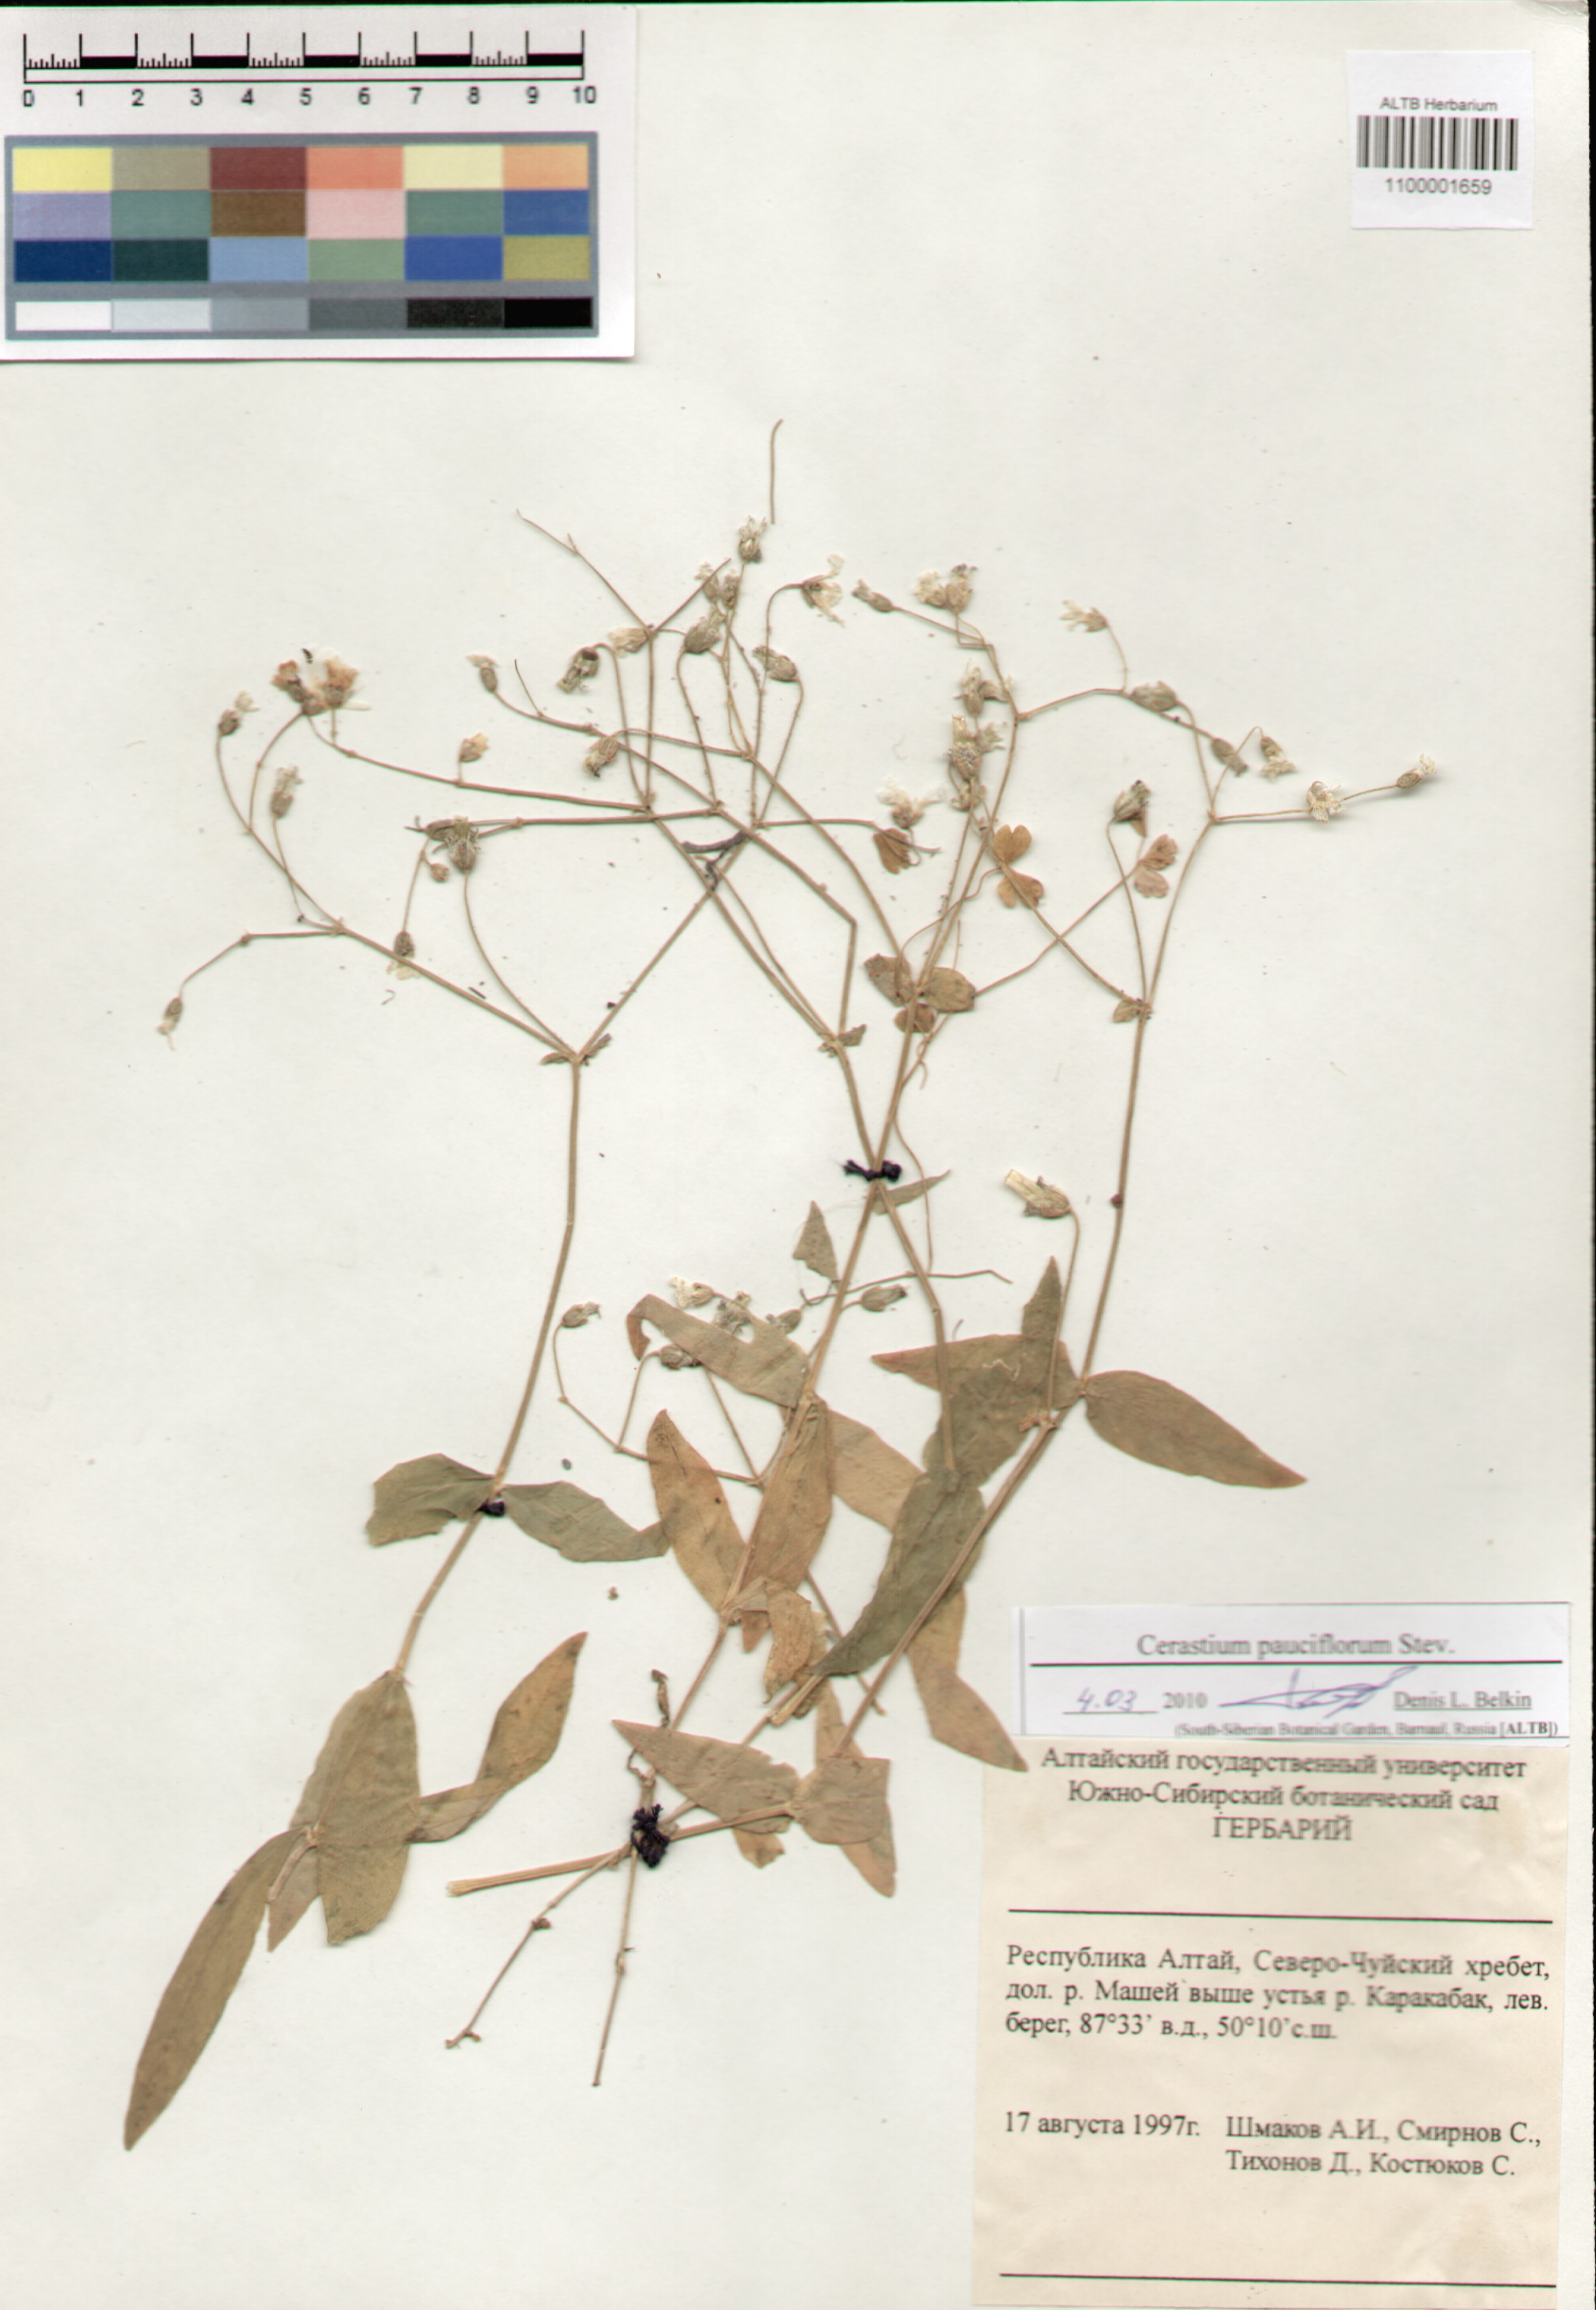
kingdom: Plantae
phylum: Tracheophyta
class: Magnoliopsida
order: Caryophyllales
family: Caryophyllaceae
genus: Cerastium
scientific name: Cerastium pauciflorum
